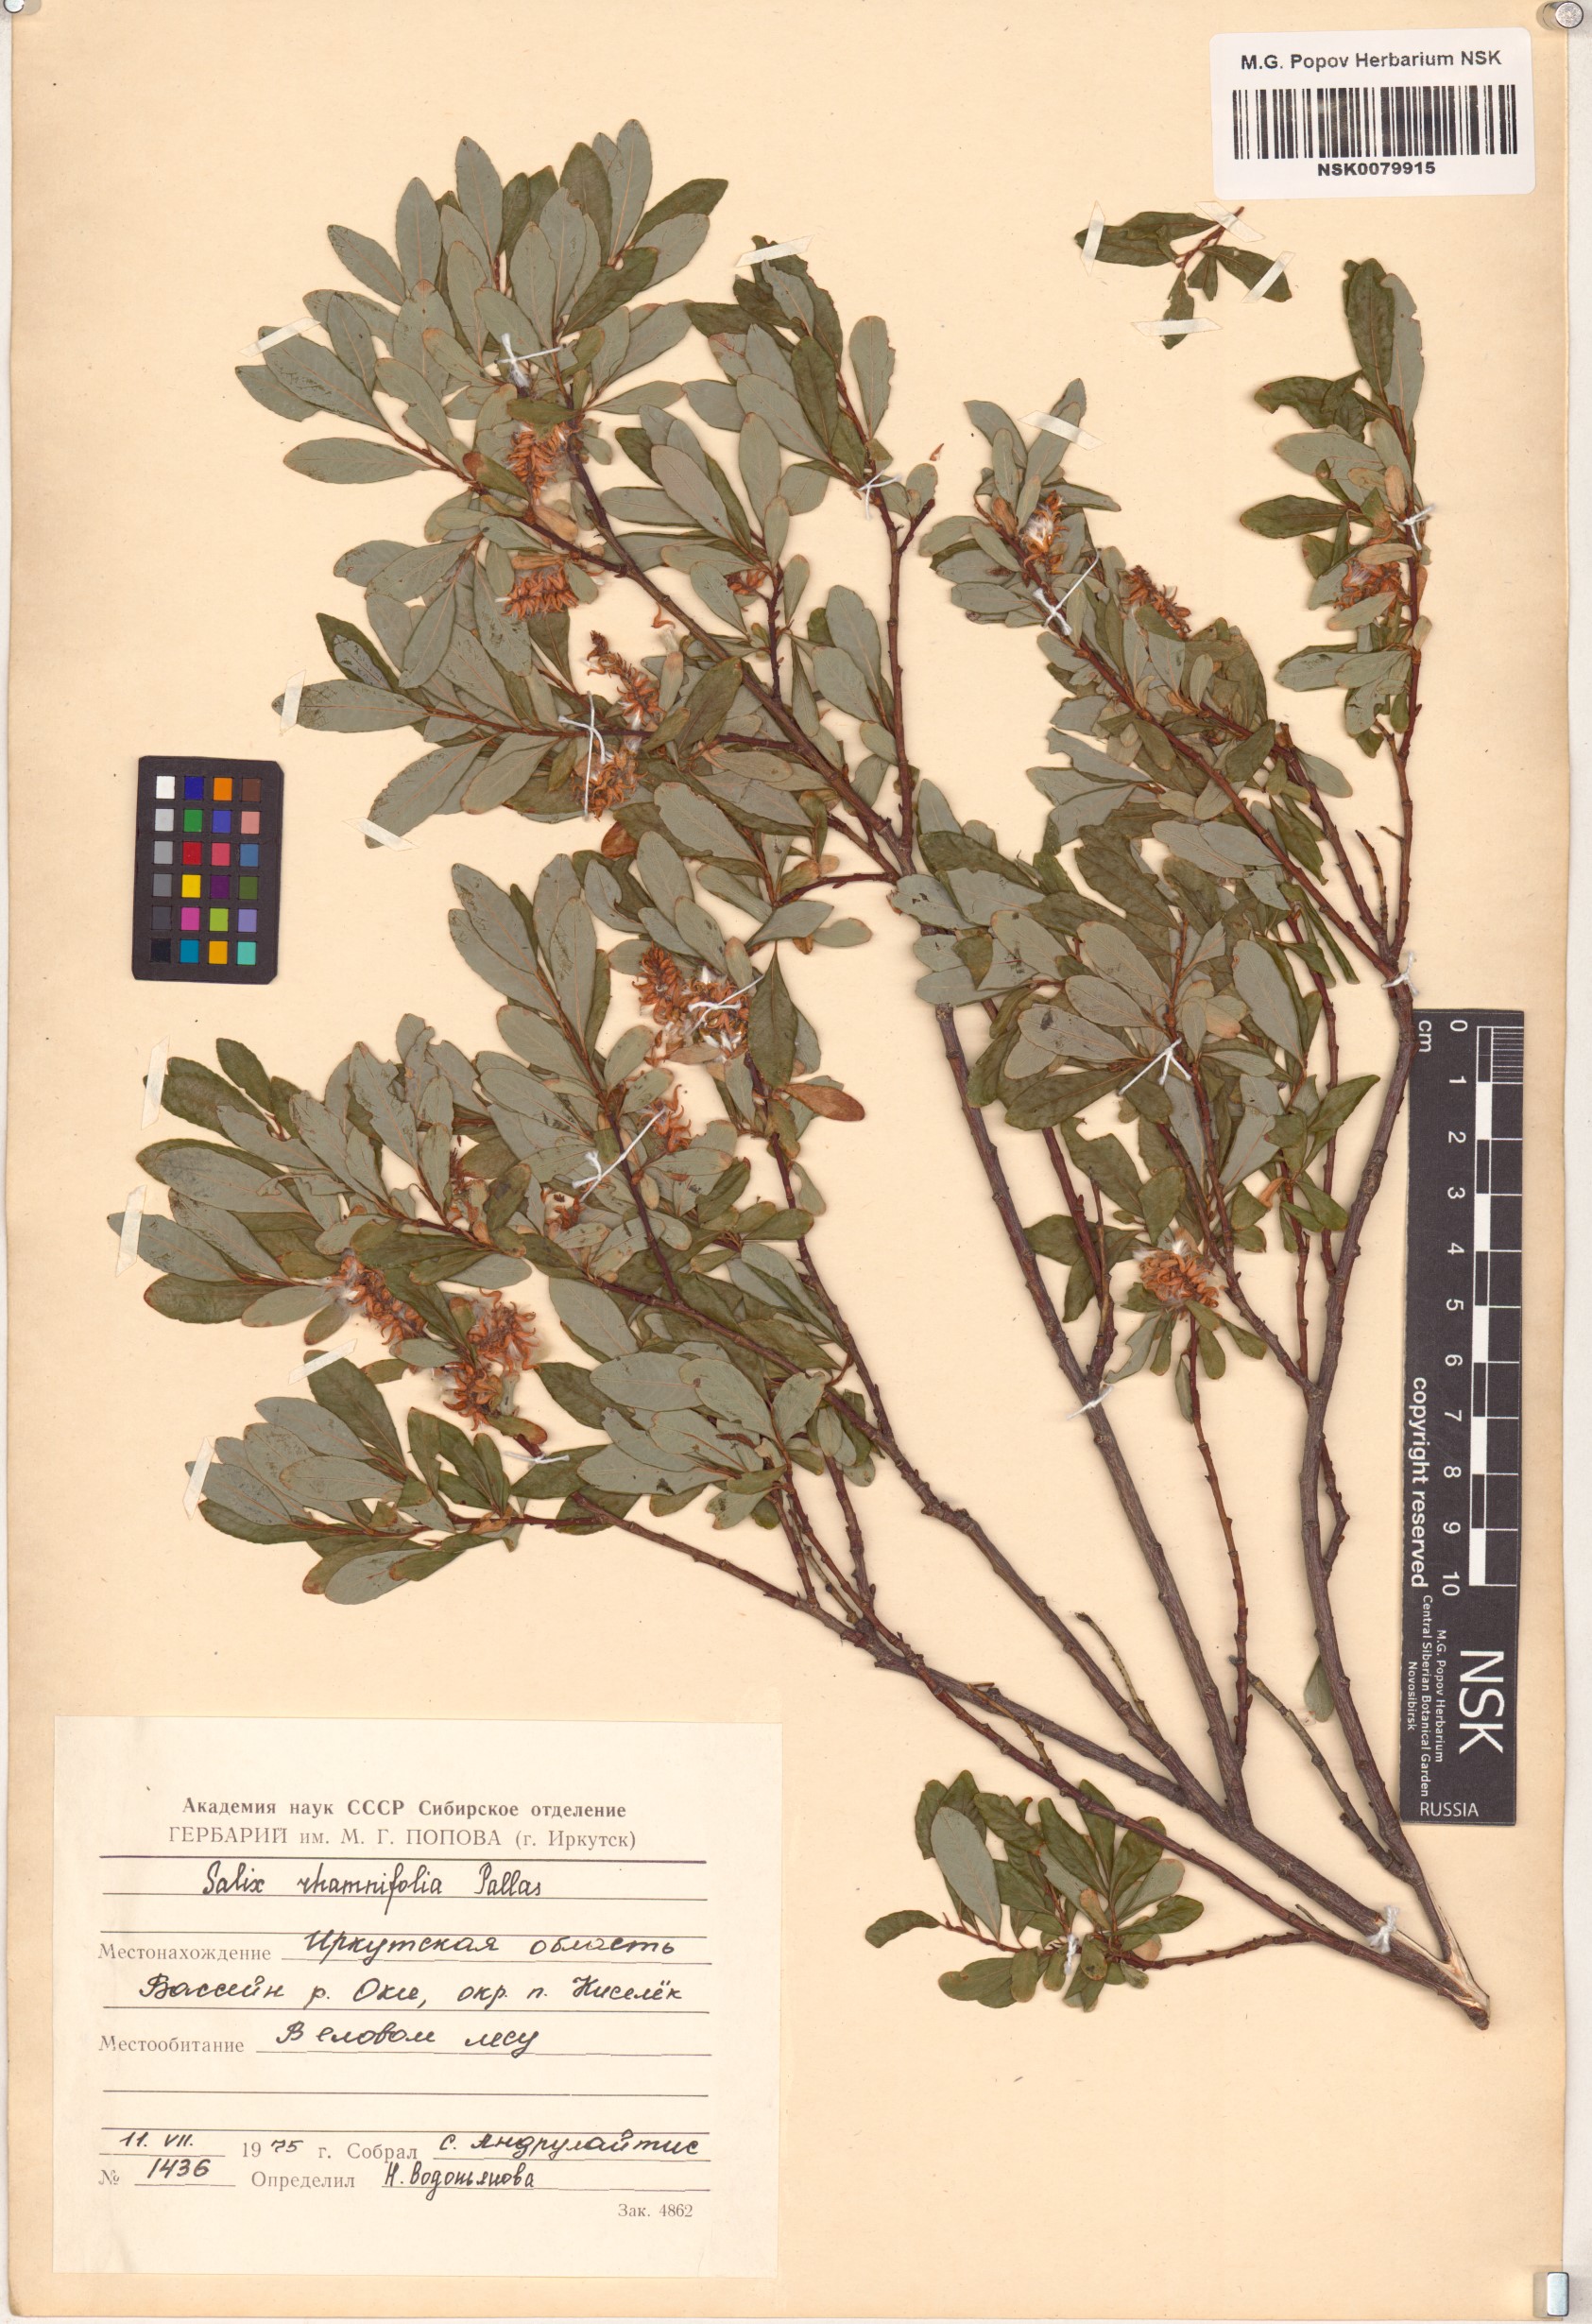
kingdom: Plantae
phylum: Tracheophyta
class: Magnoliopsida
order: Malpighiales
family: Salicaceae
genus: Salix
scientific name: Salix rhamnifolia
